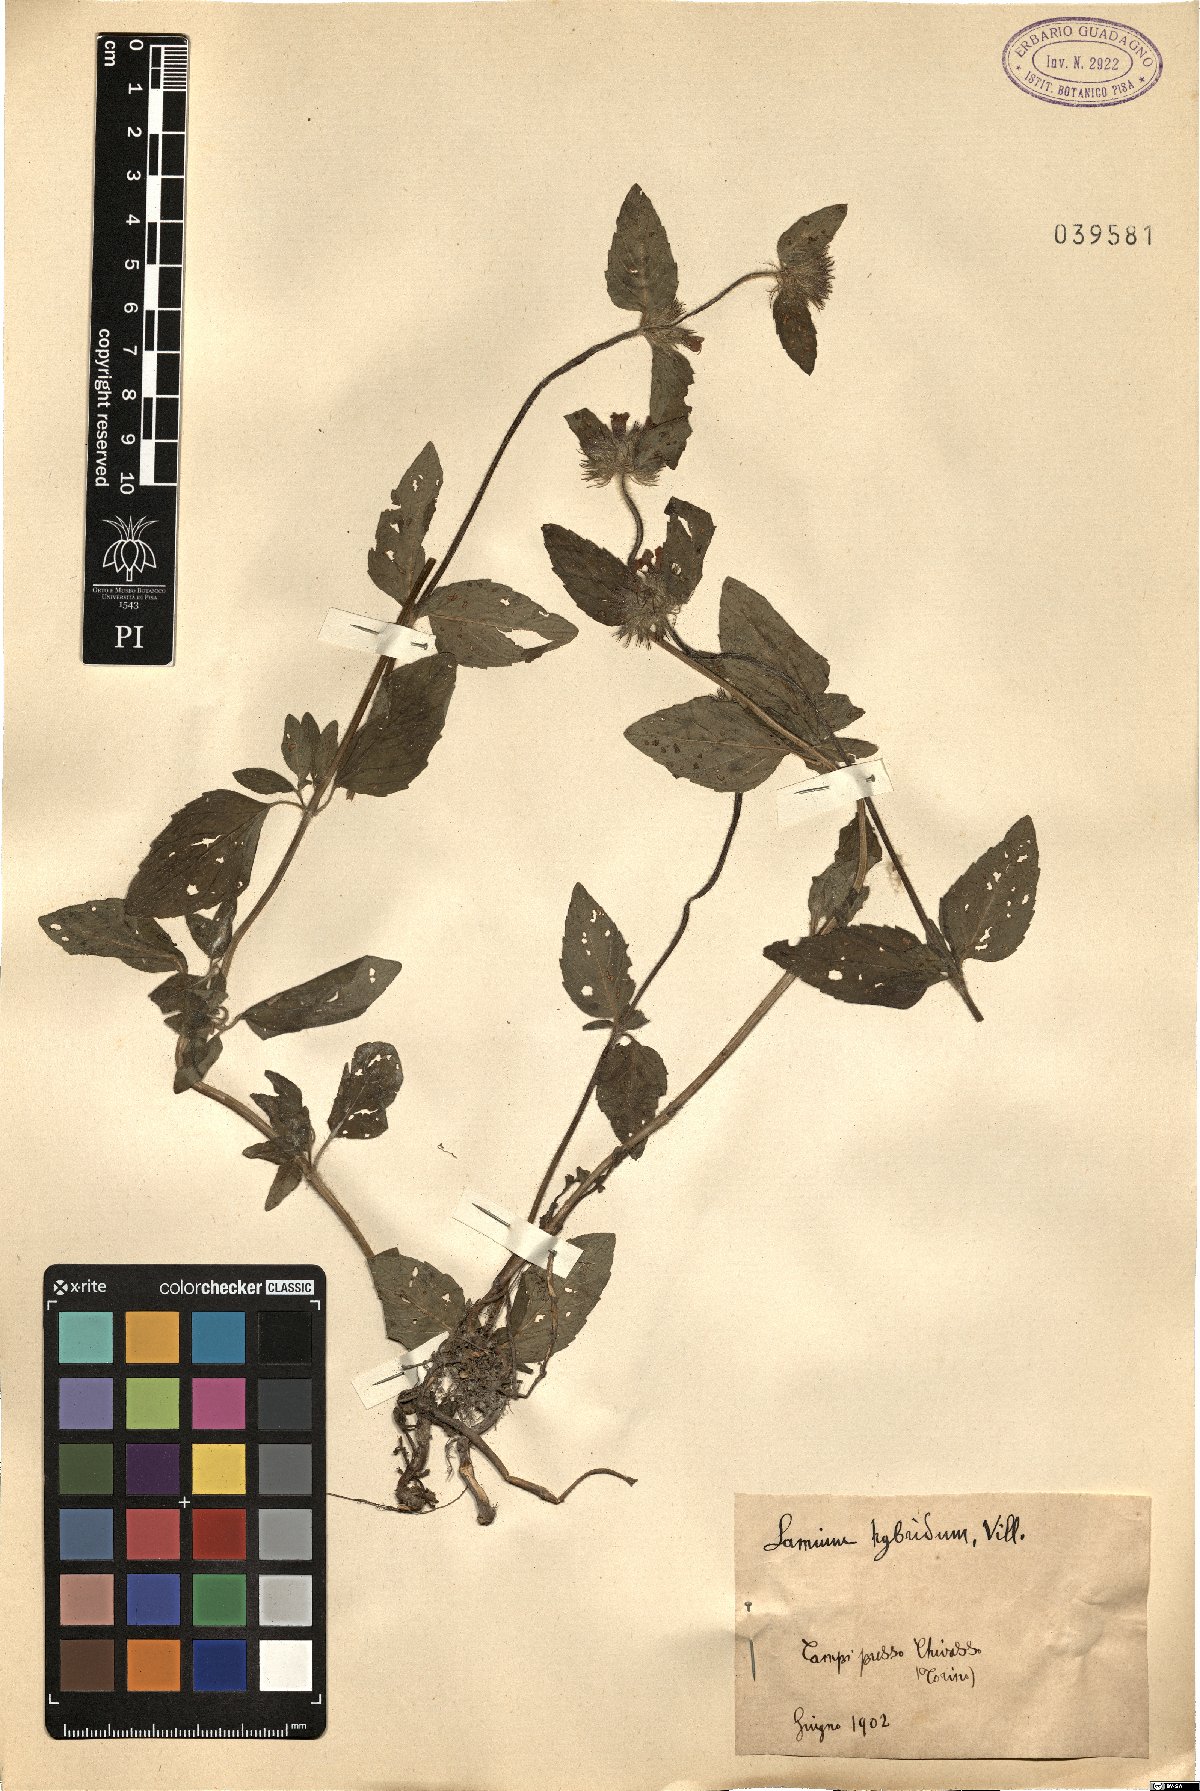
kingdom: Plantae
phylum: Tracheophyta
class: Magnoliopsida
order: Lamiales
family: Lamiaceae
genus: Lamium
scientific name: Lamium hybridum
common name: Cut-leaved dead-nettle
